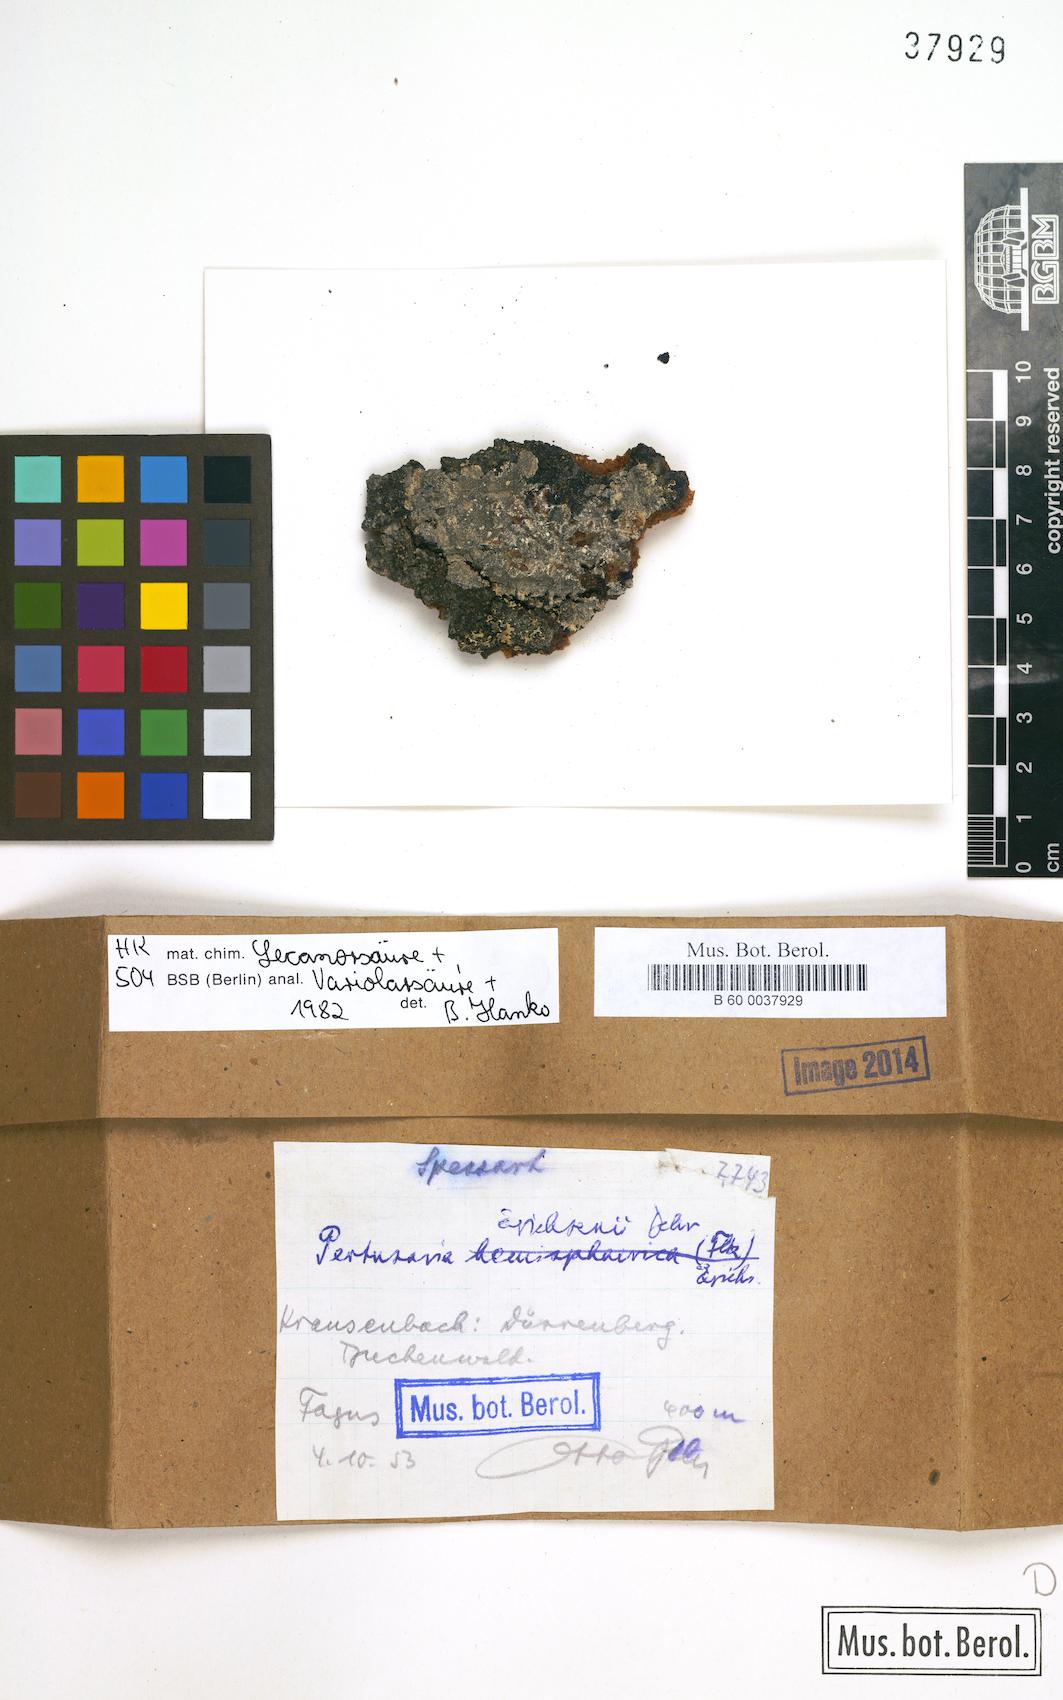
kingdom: Fungi
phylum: Ascomycota
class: Lecanoromycetes
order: Pertusariales
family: Pertusariaceae
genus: Pertusaria
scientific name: Pertusaria
